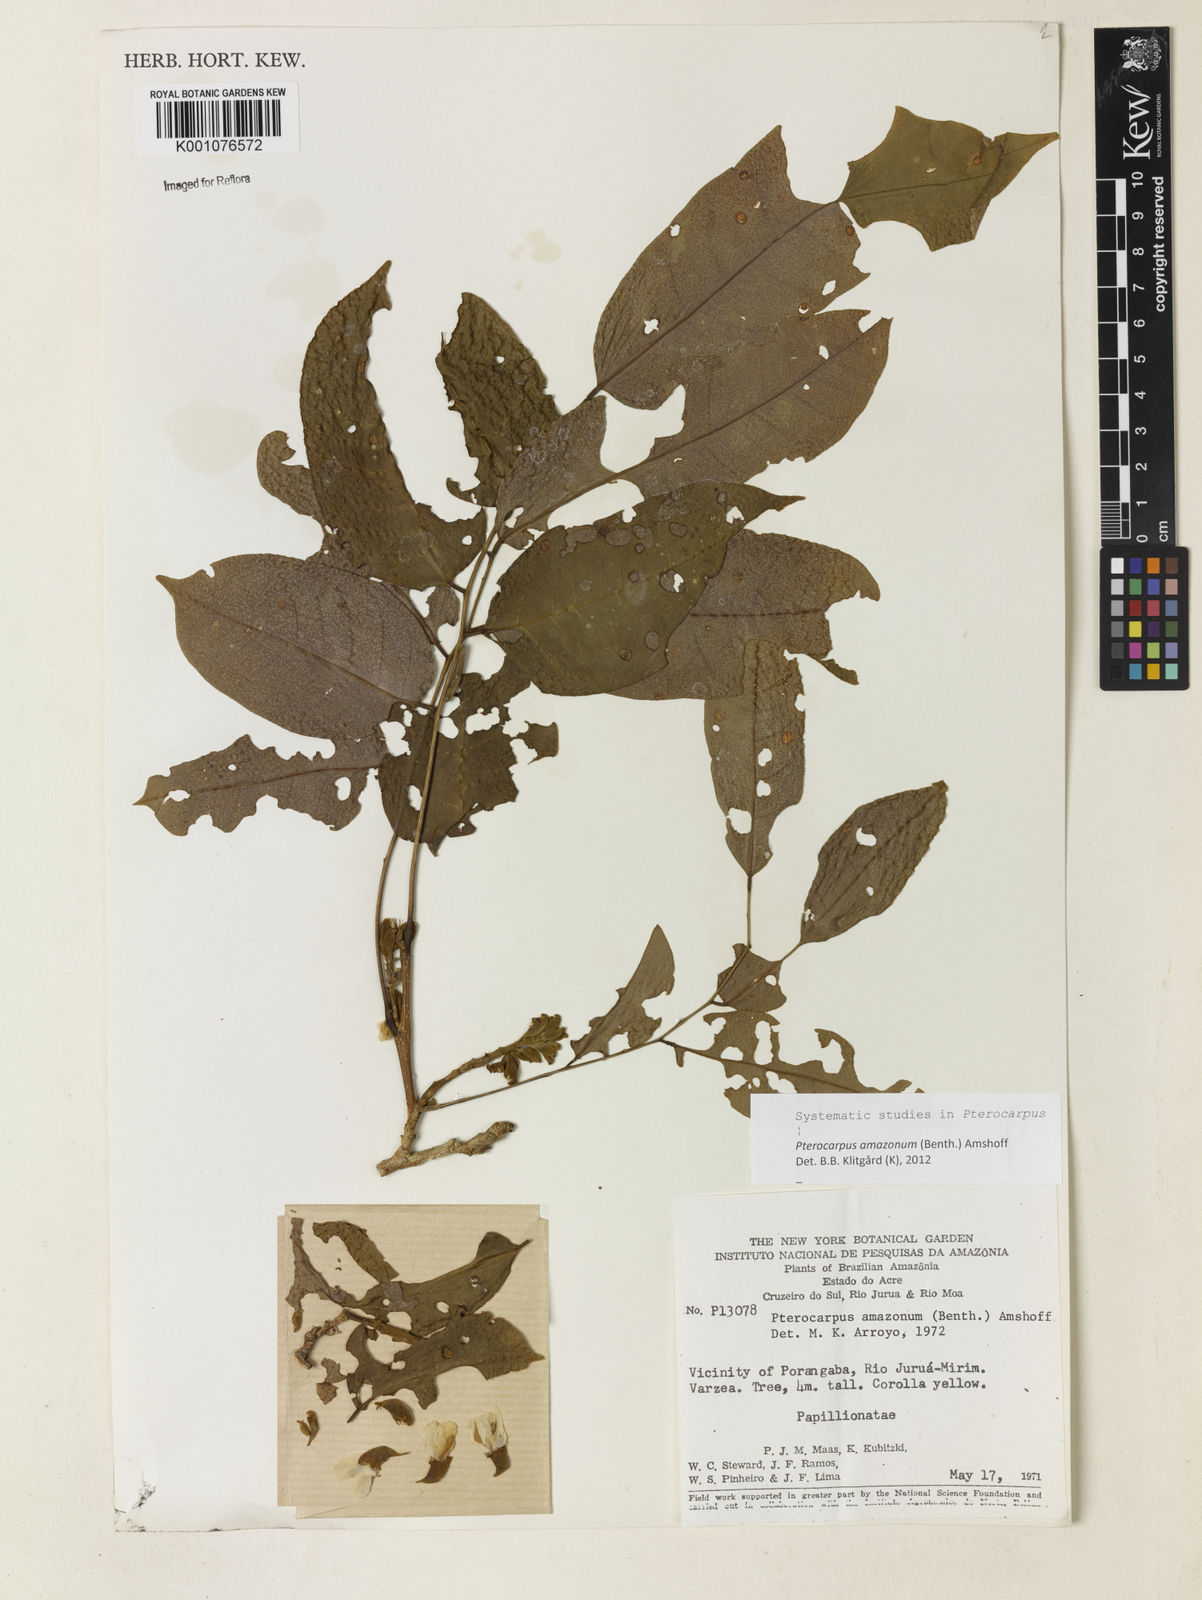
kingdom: Plantae
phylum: Tracheophyta
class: Magnoliopsida
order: Fabales
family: Fabaceae
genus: Pterocarpus
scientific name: Pterocarpus amazonum
